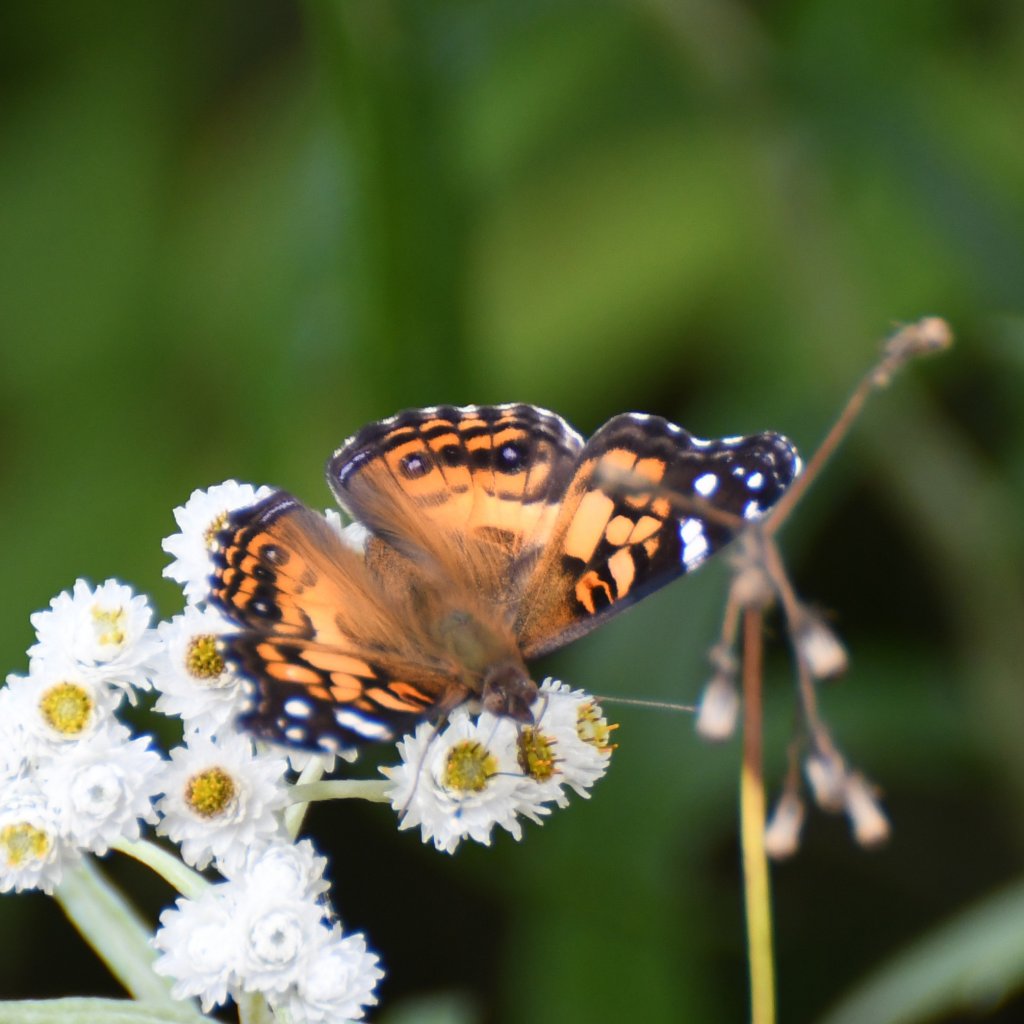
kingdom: Animalia
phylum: Arthropoda
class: Insecta
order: Lepidoptera
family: Nymphalidae
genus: Vanessa
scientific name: Vanessa virginiensis
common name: American Lady
